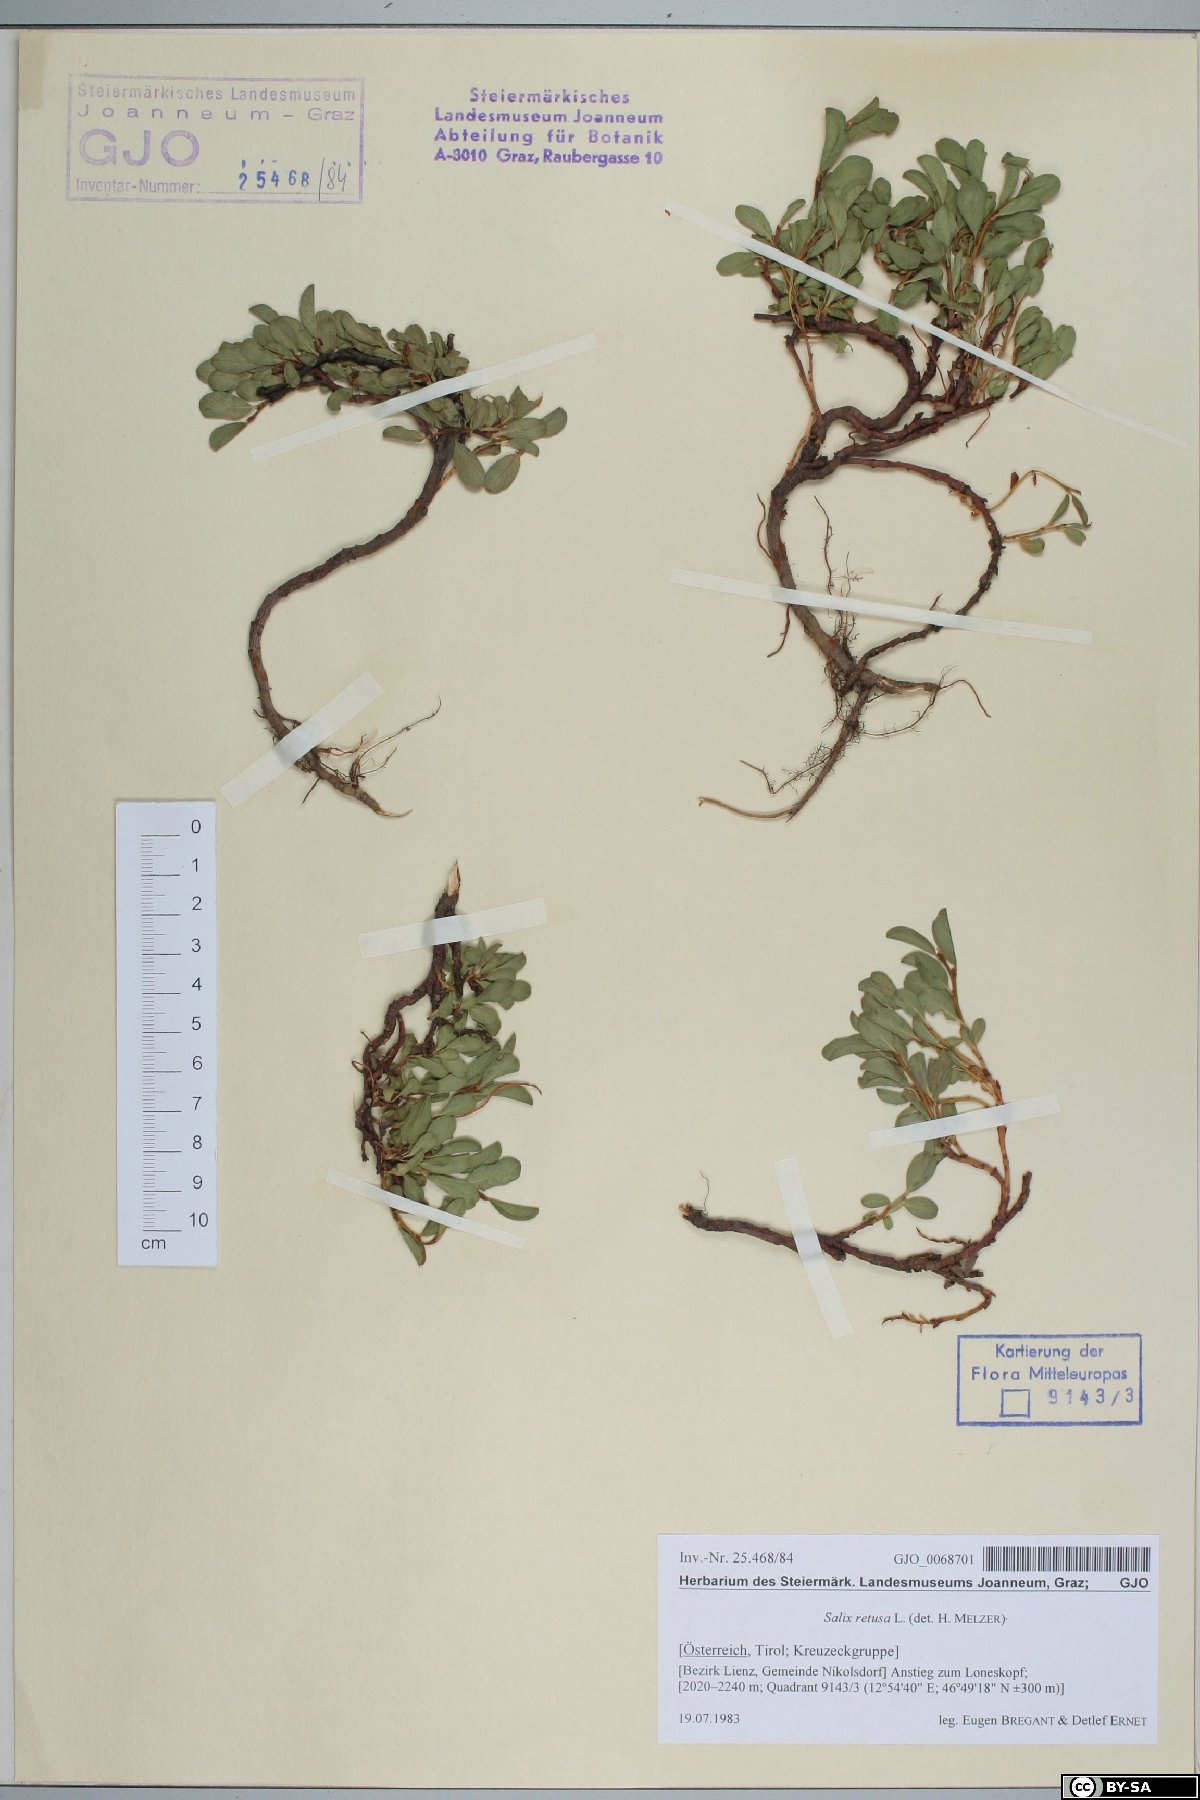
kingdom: Plantae
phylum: Tracheophyta
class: Magnoliopsida
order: Malpighiales
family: Salicaceae
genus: Salix
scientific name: Salix retusa
